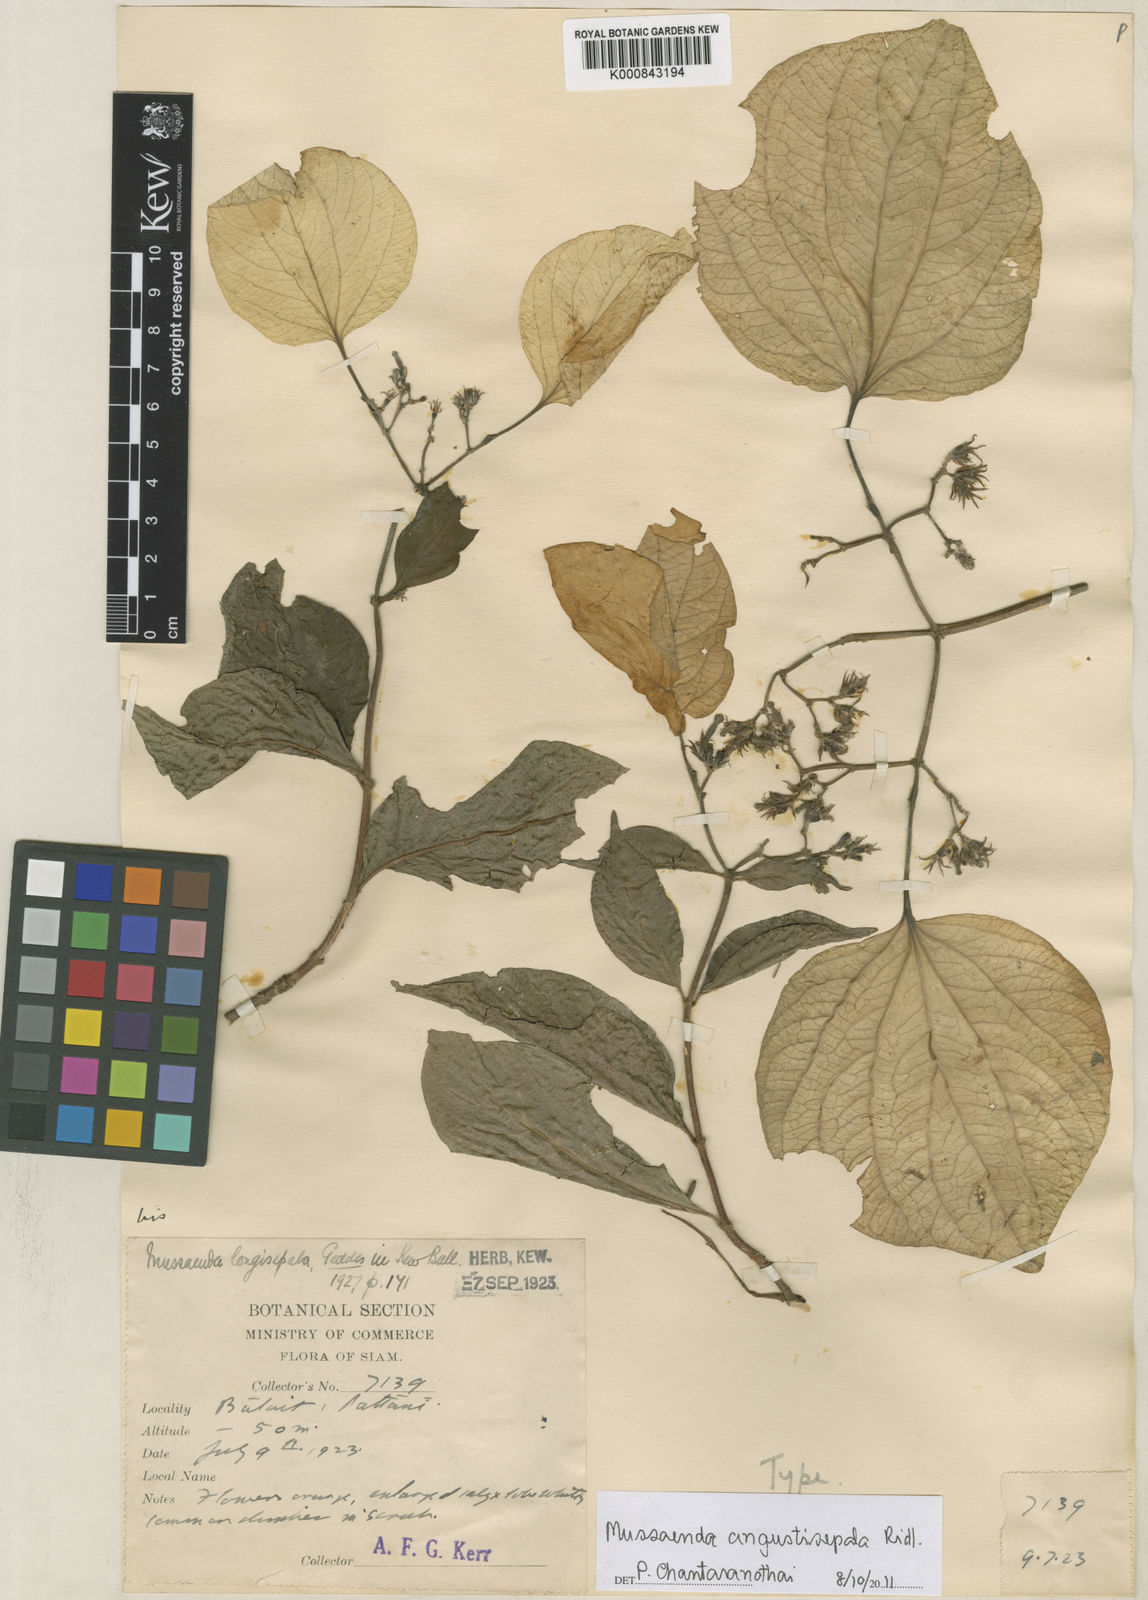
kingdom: Plantae
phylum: Tracheophyta
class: Magnoliopsida
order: Gentianales
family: Rubiaceae
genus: Mussaenda
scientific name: Mussaenda angustisepala
